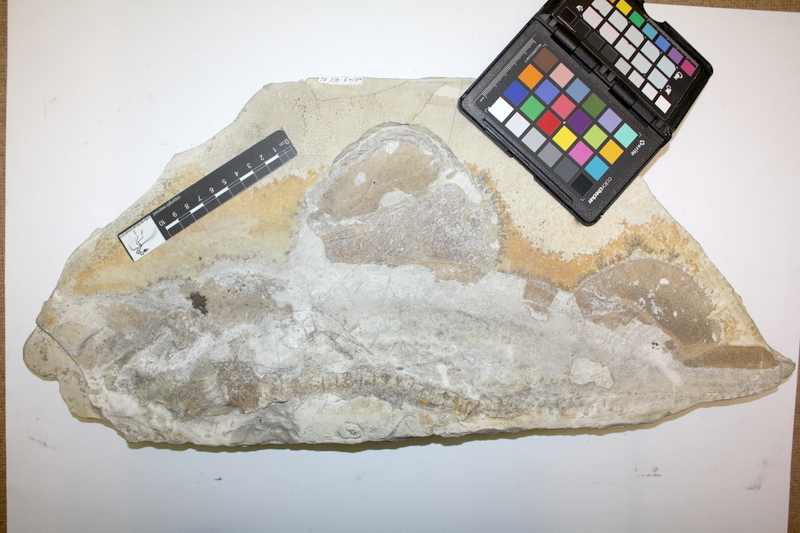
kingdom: Animalia
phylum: Chordata
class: Elasmobranchii
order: Orectolobiformes
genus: Palaeocarcharias
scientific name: Palaeocarcharias stromeri
